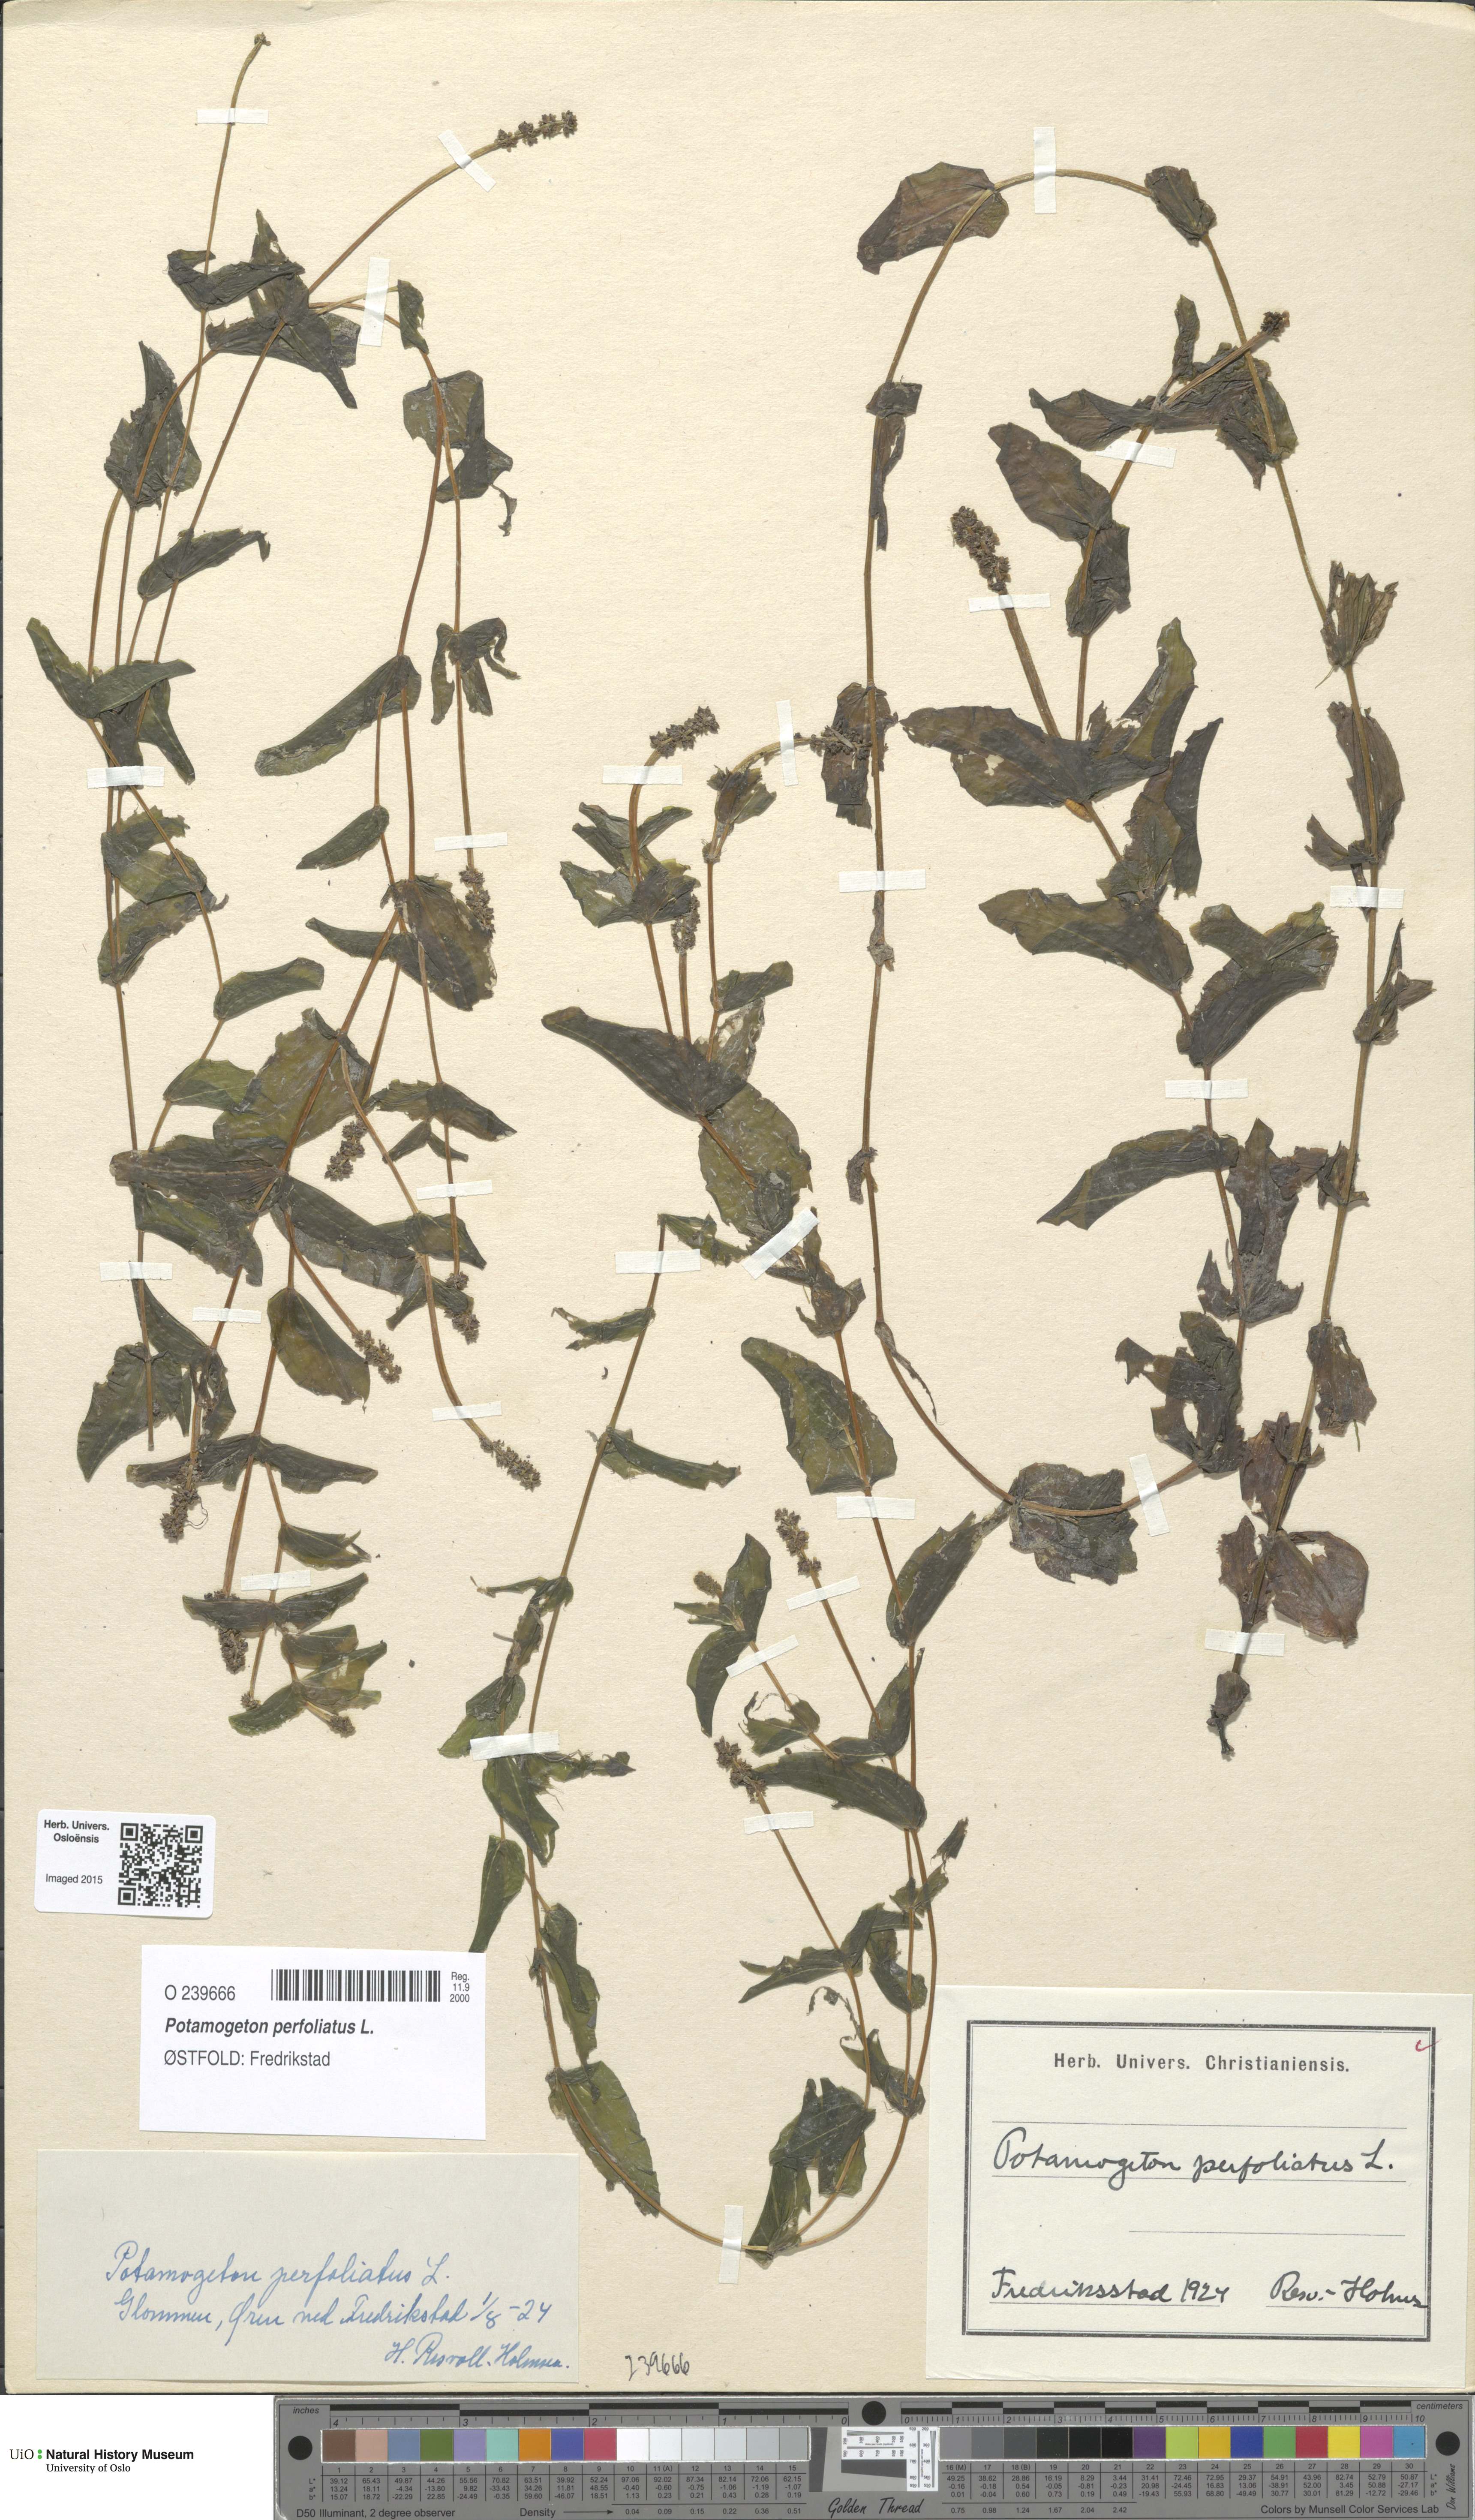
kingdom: Plantae
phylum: Tracheophyta
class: Liliopsida
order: Alismatales
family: Potamogetonaceae
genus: Potamogeton
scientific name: Potamogeton perfoliatus
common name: Perfoliate pondweed
